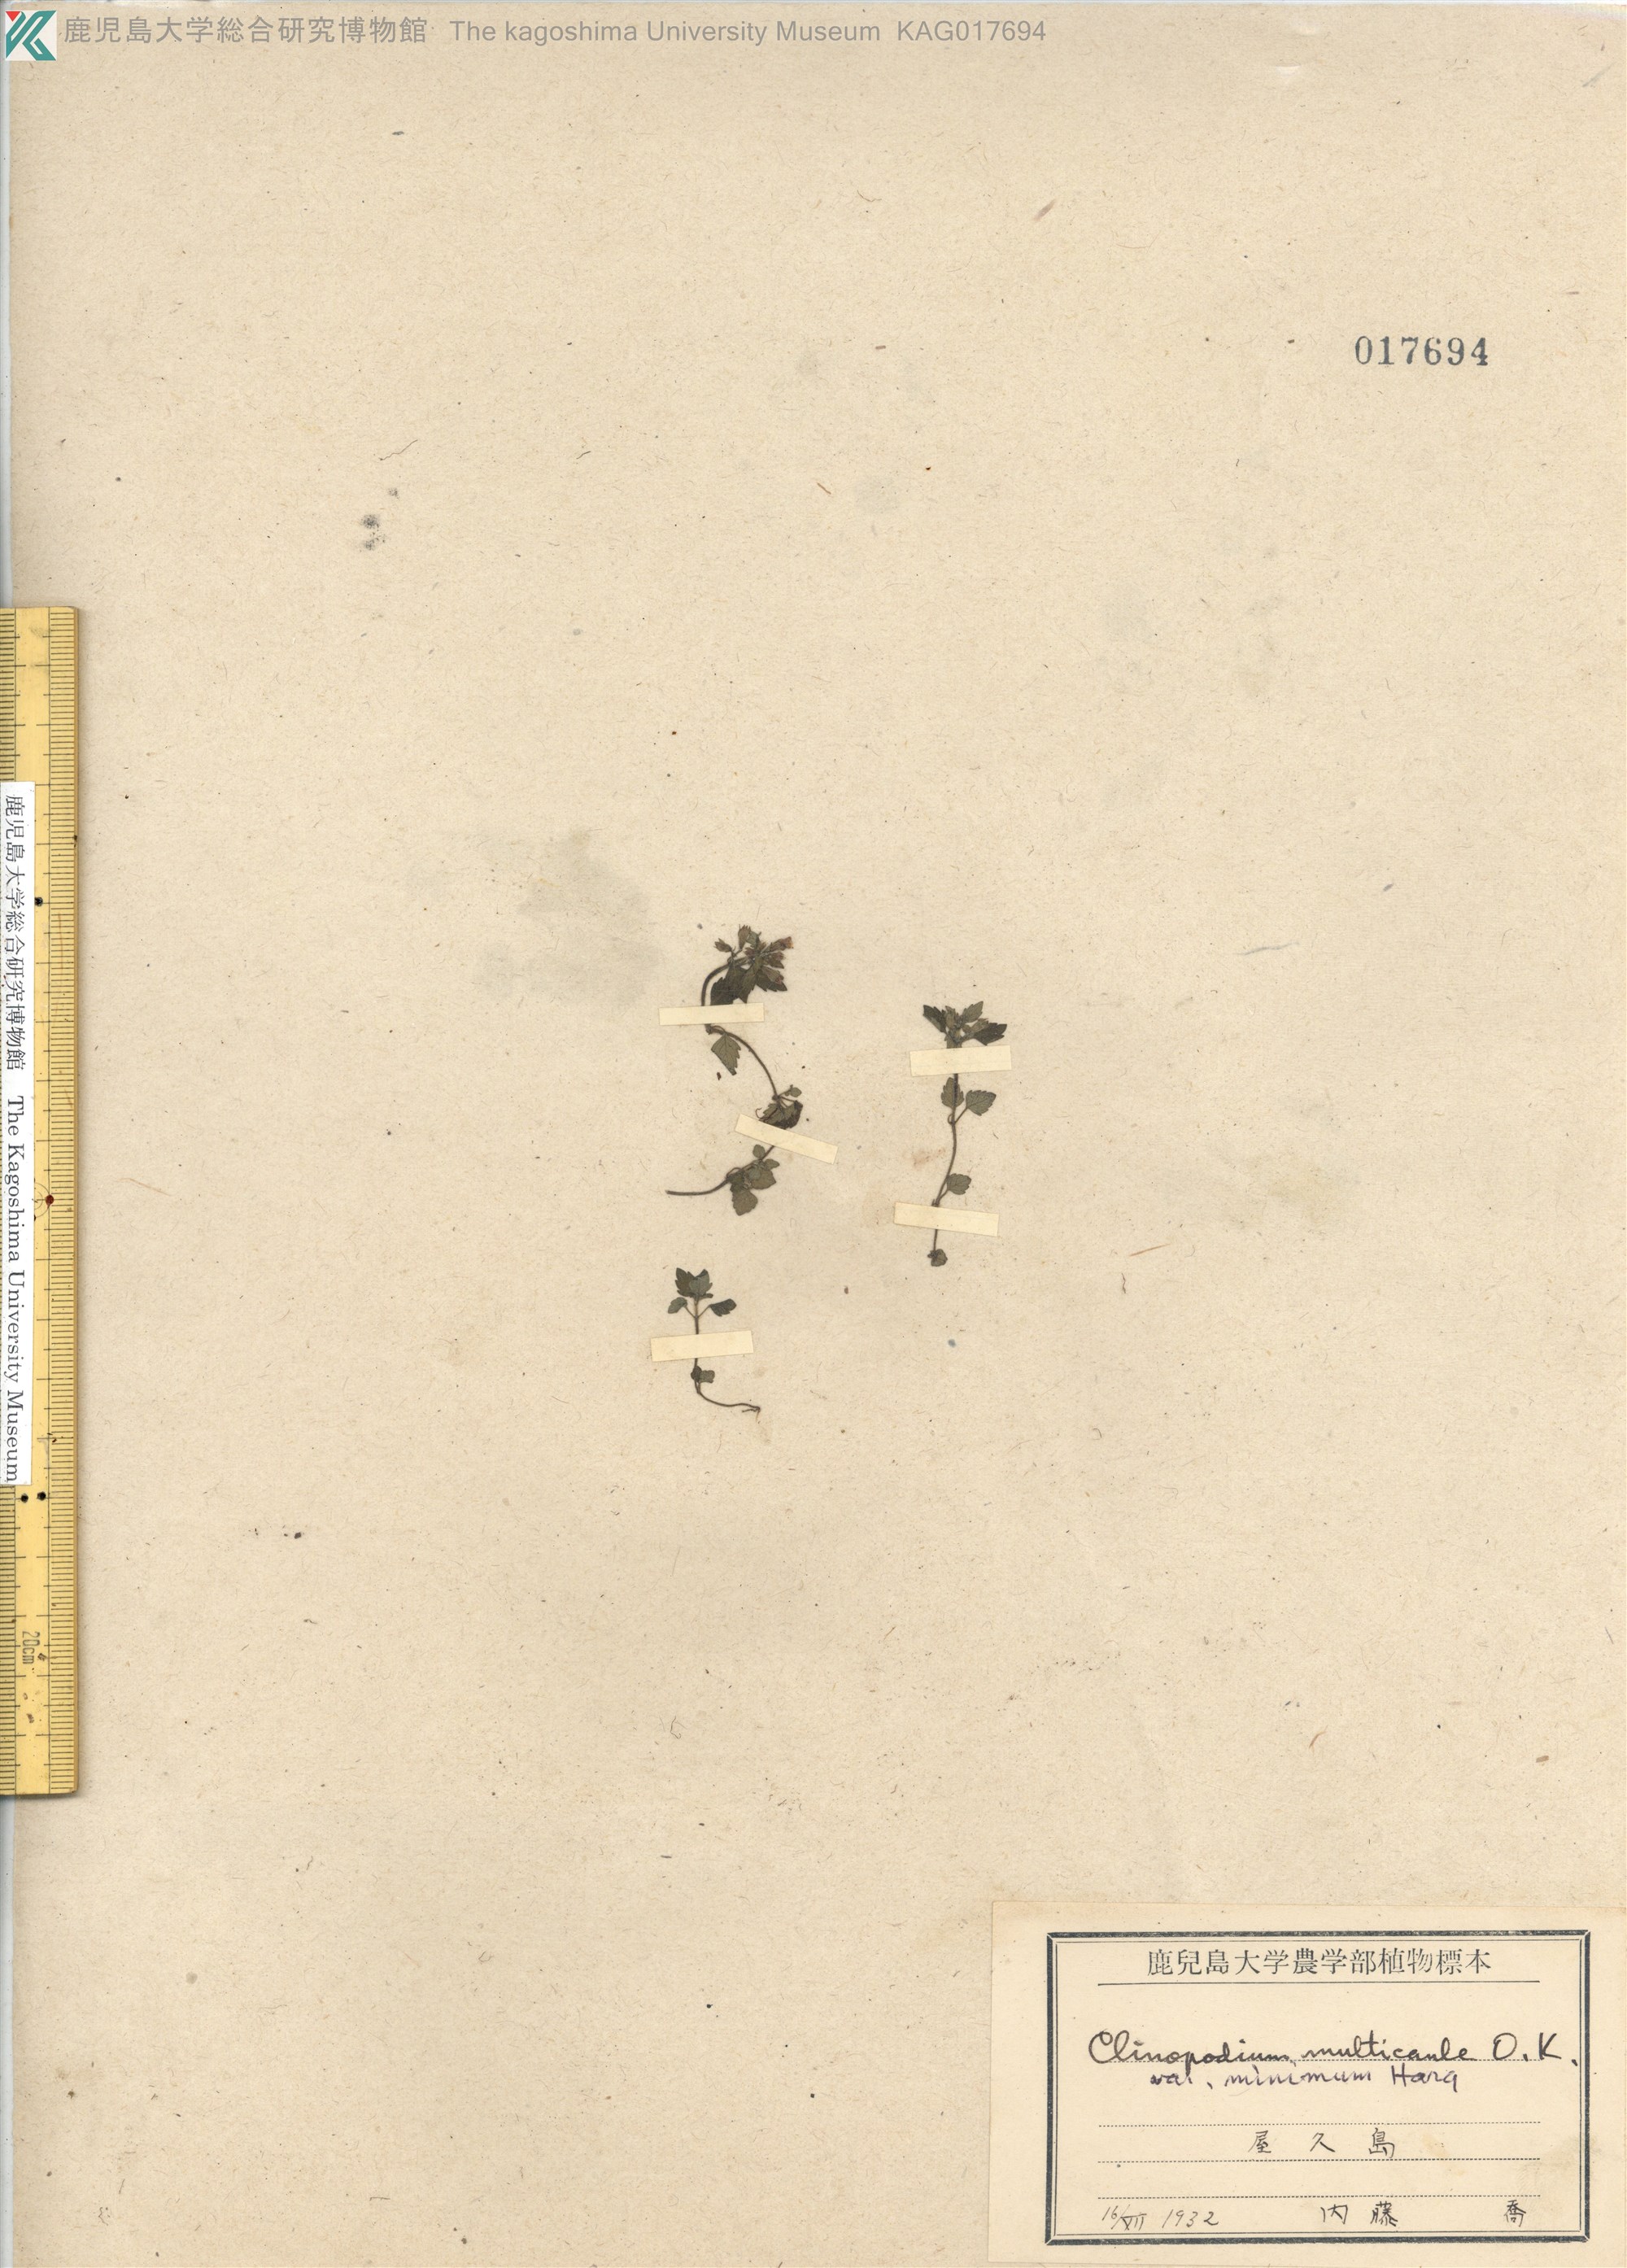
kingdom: Plantae
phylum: Tracheophyta
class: Magnoliopsida
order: Lamiales
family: Lamiaceae
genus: Clinopodium
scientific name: Clinopodium multicaule
